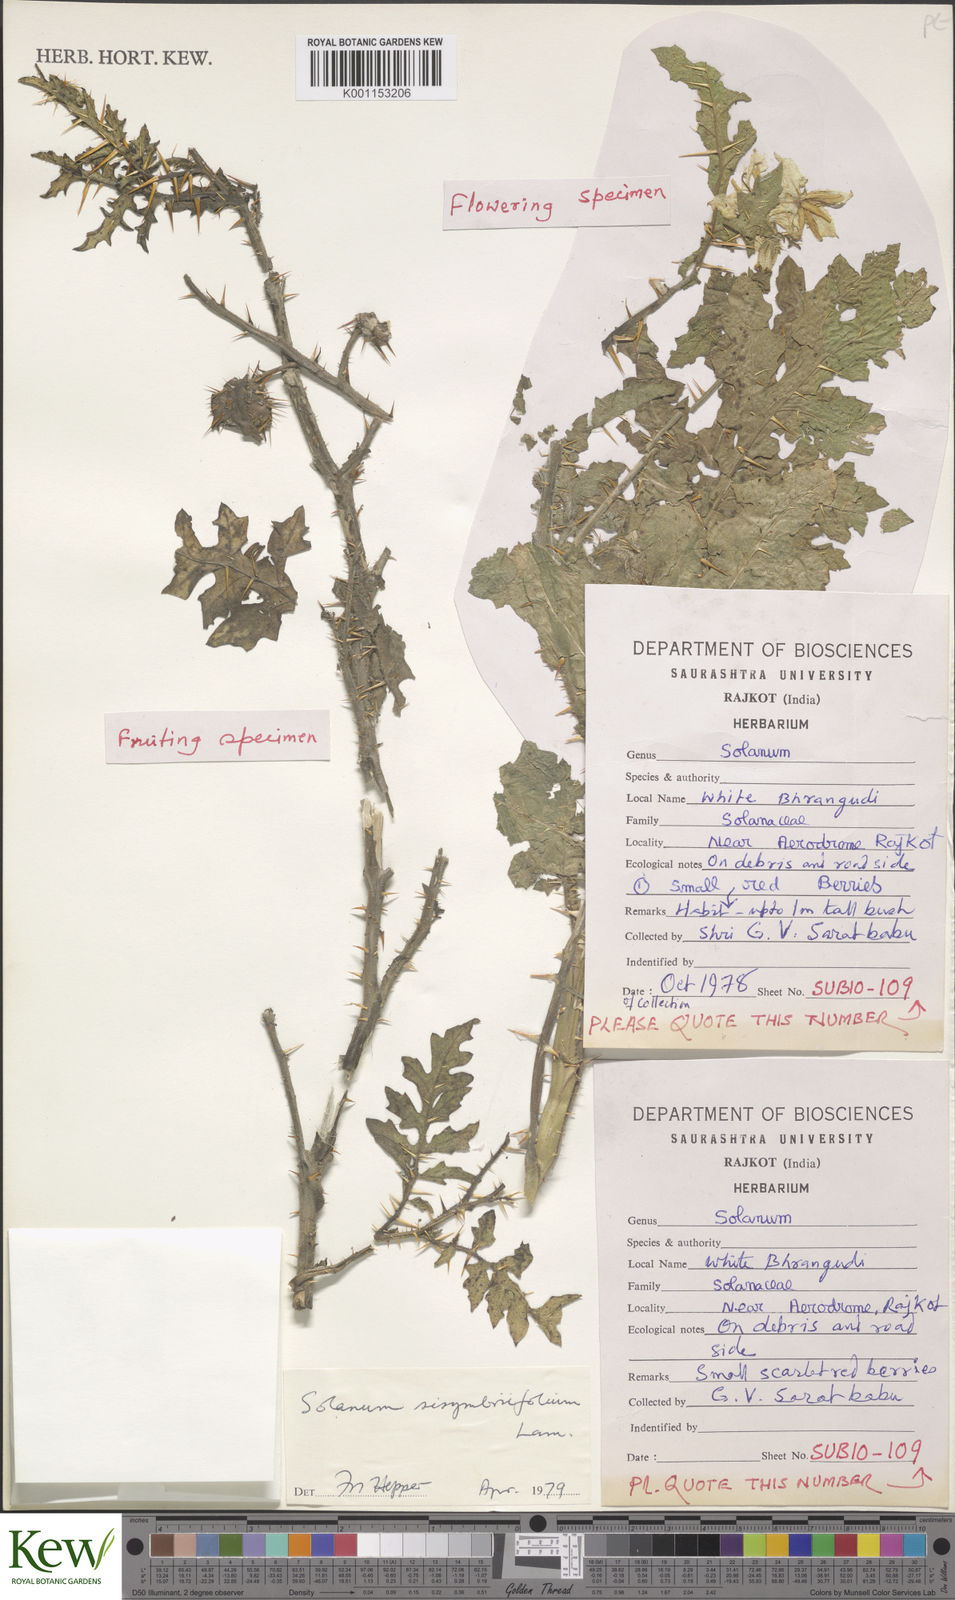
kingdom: Plantae
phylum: Tracheophyta
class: Magnoliopsida
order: Solanales
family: Solanaceae
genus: Solanum
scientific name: Solanum sisymbriifolium
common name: Red buffalo-bur
